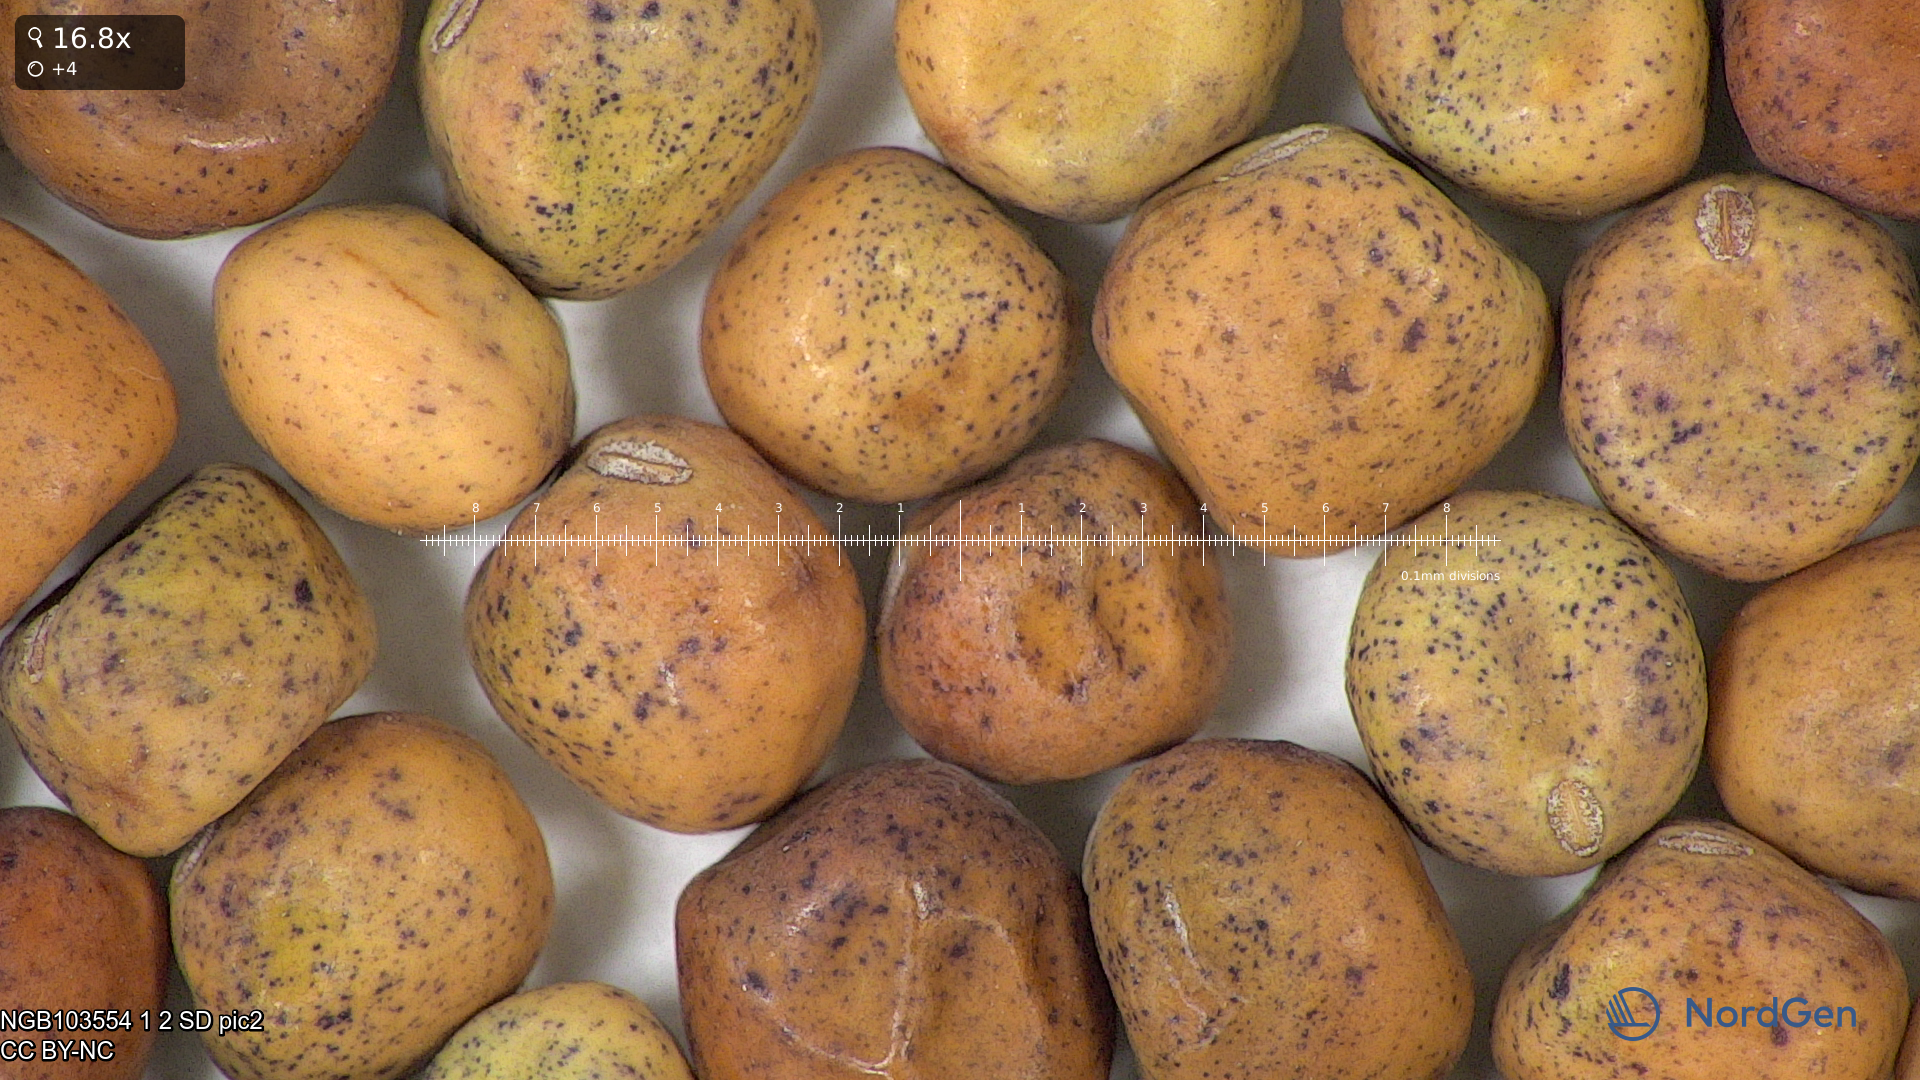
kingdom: Plantae
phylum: Tracheophyta
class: Magnoliopsida
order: Fabales
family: Fabaceae
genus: Lathyrus
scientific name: Lathyrus oleraceus
